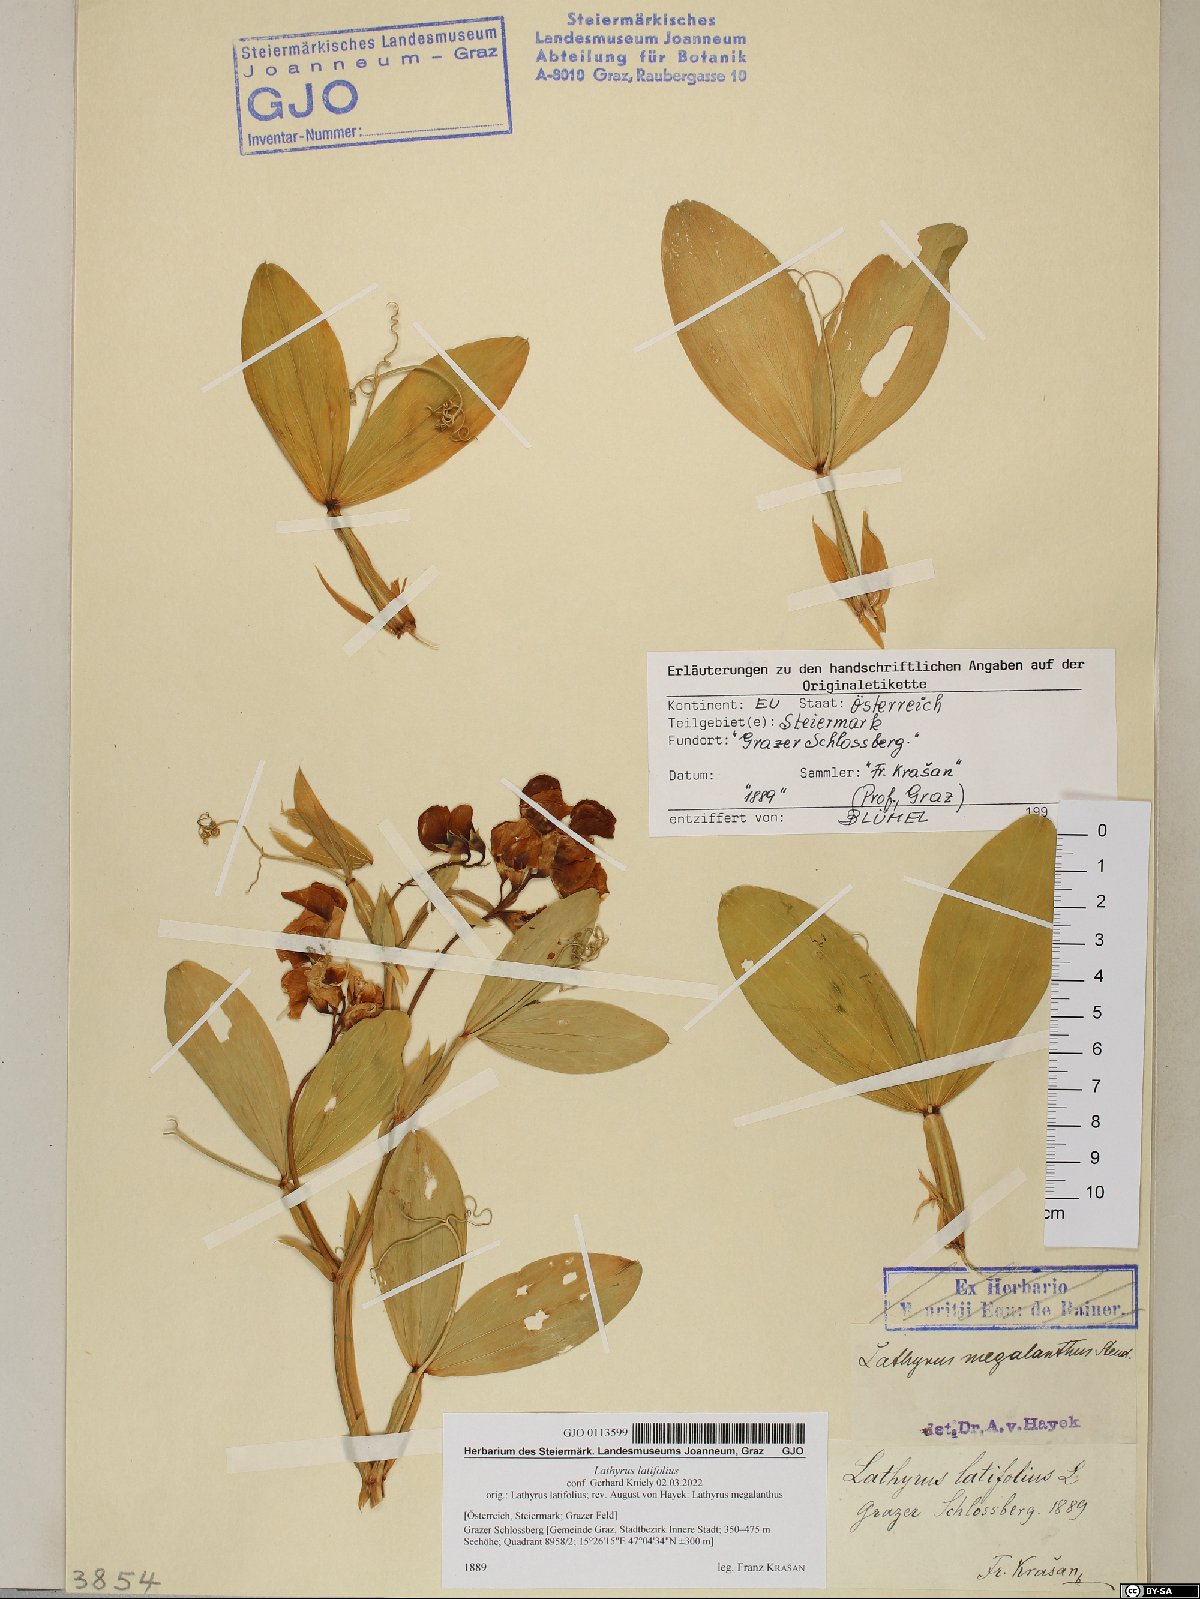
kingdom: Plantae
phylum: Tracheophyta
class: Magnoliopsida
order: Fabales
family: Fabaceae
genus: Lathyrus
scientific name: Lathyrus latifolius
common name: Perennial pea
